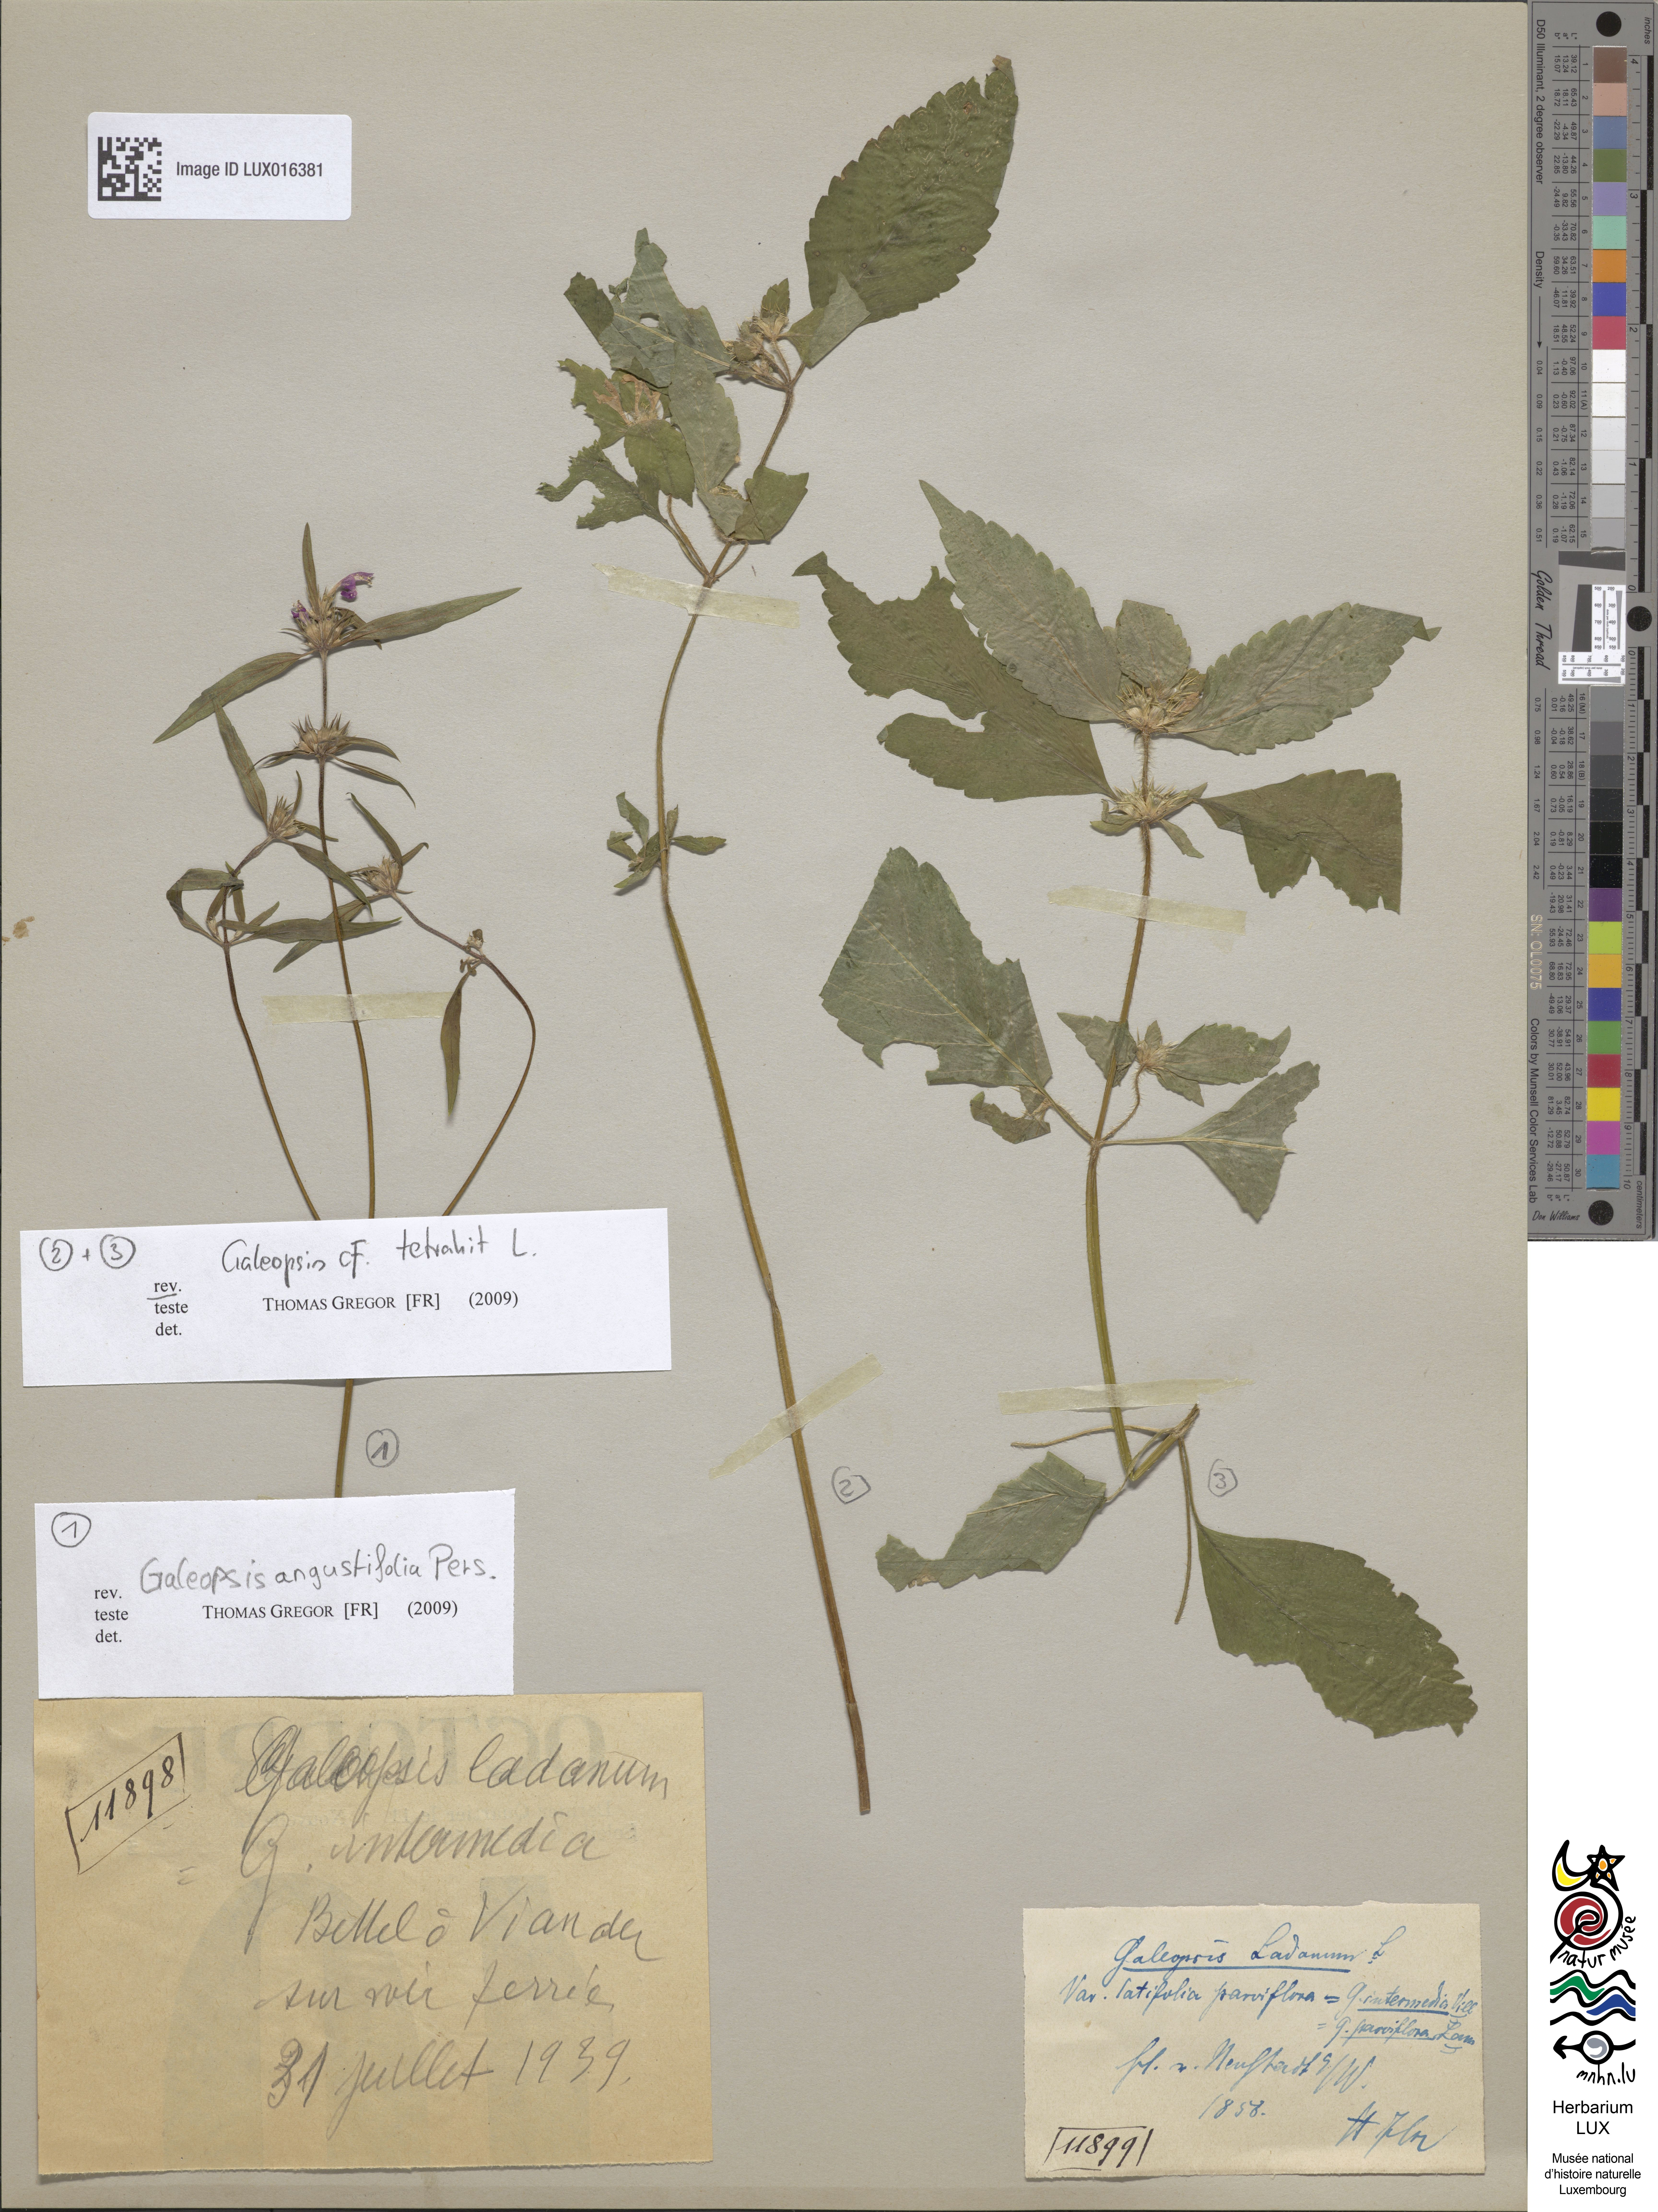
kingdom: Plantae
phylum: Tracheophyta
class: Magnoliopsida
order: Lamiales
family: Lamiaceae
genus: Galeopsis
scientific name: Galeopsis angustifolia
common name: Red hemp-nettle
